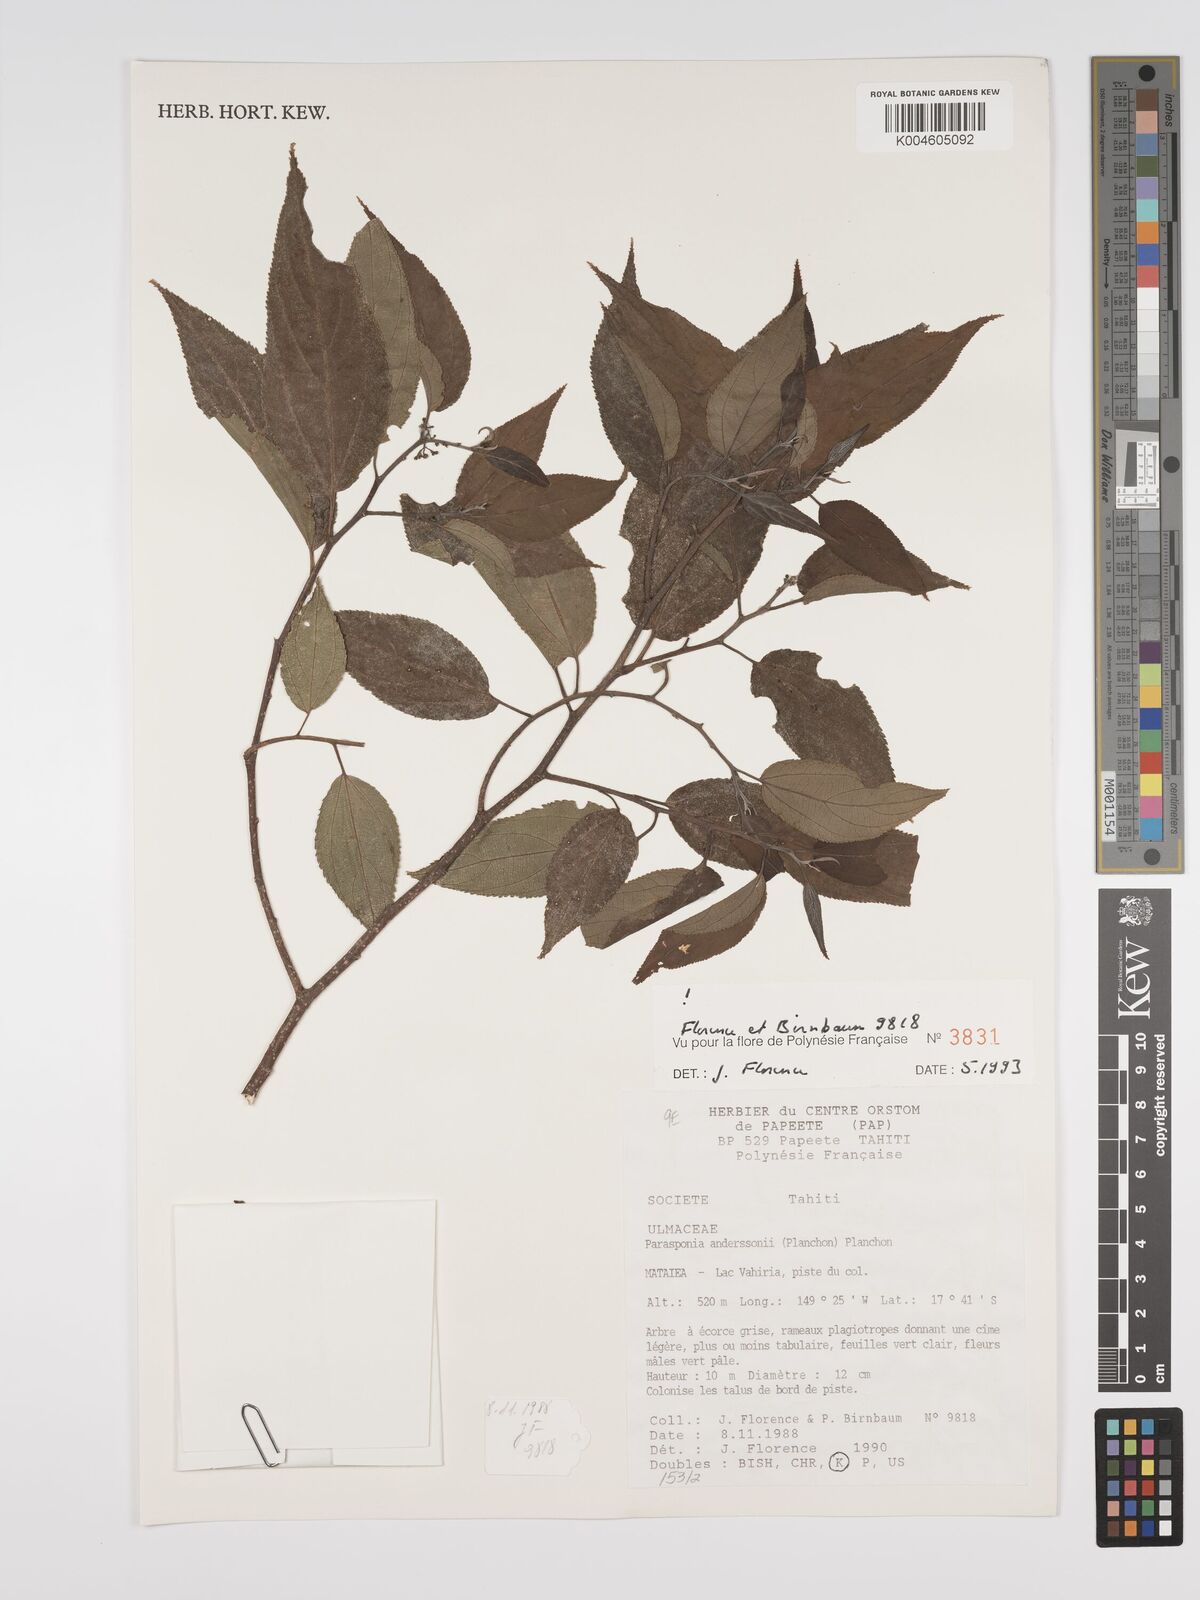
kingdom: Plantae
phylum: Tracheophyta
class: Magnoliopsida
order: Rosales
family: Cannabaceae
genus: Trema
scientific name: Trema andersonii
